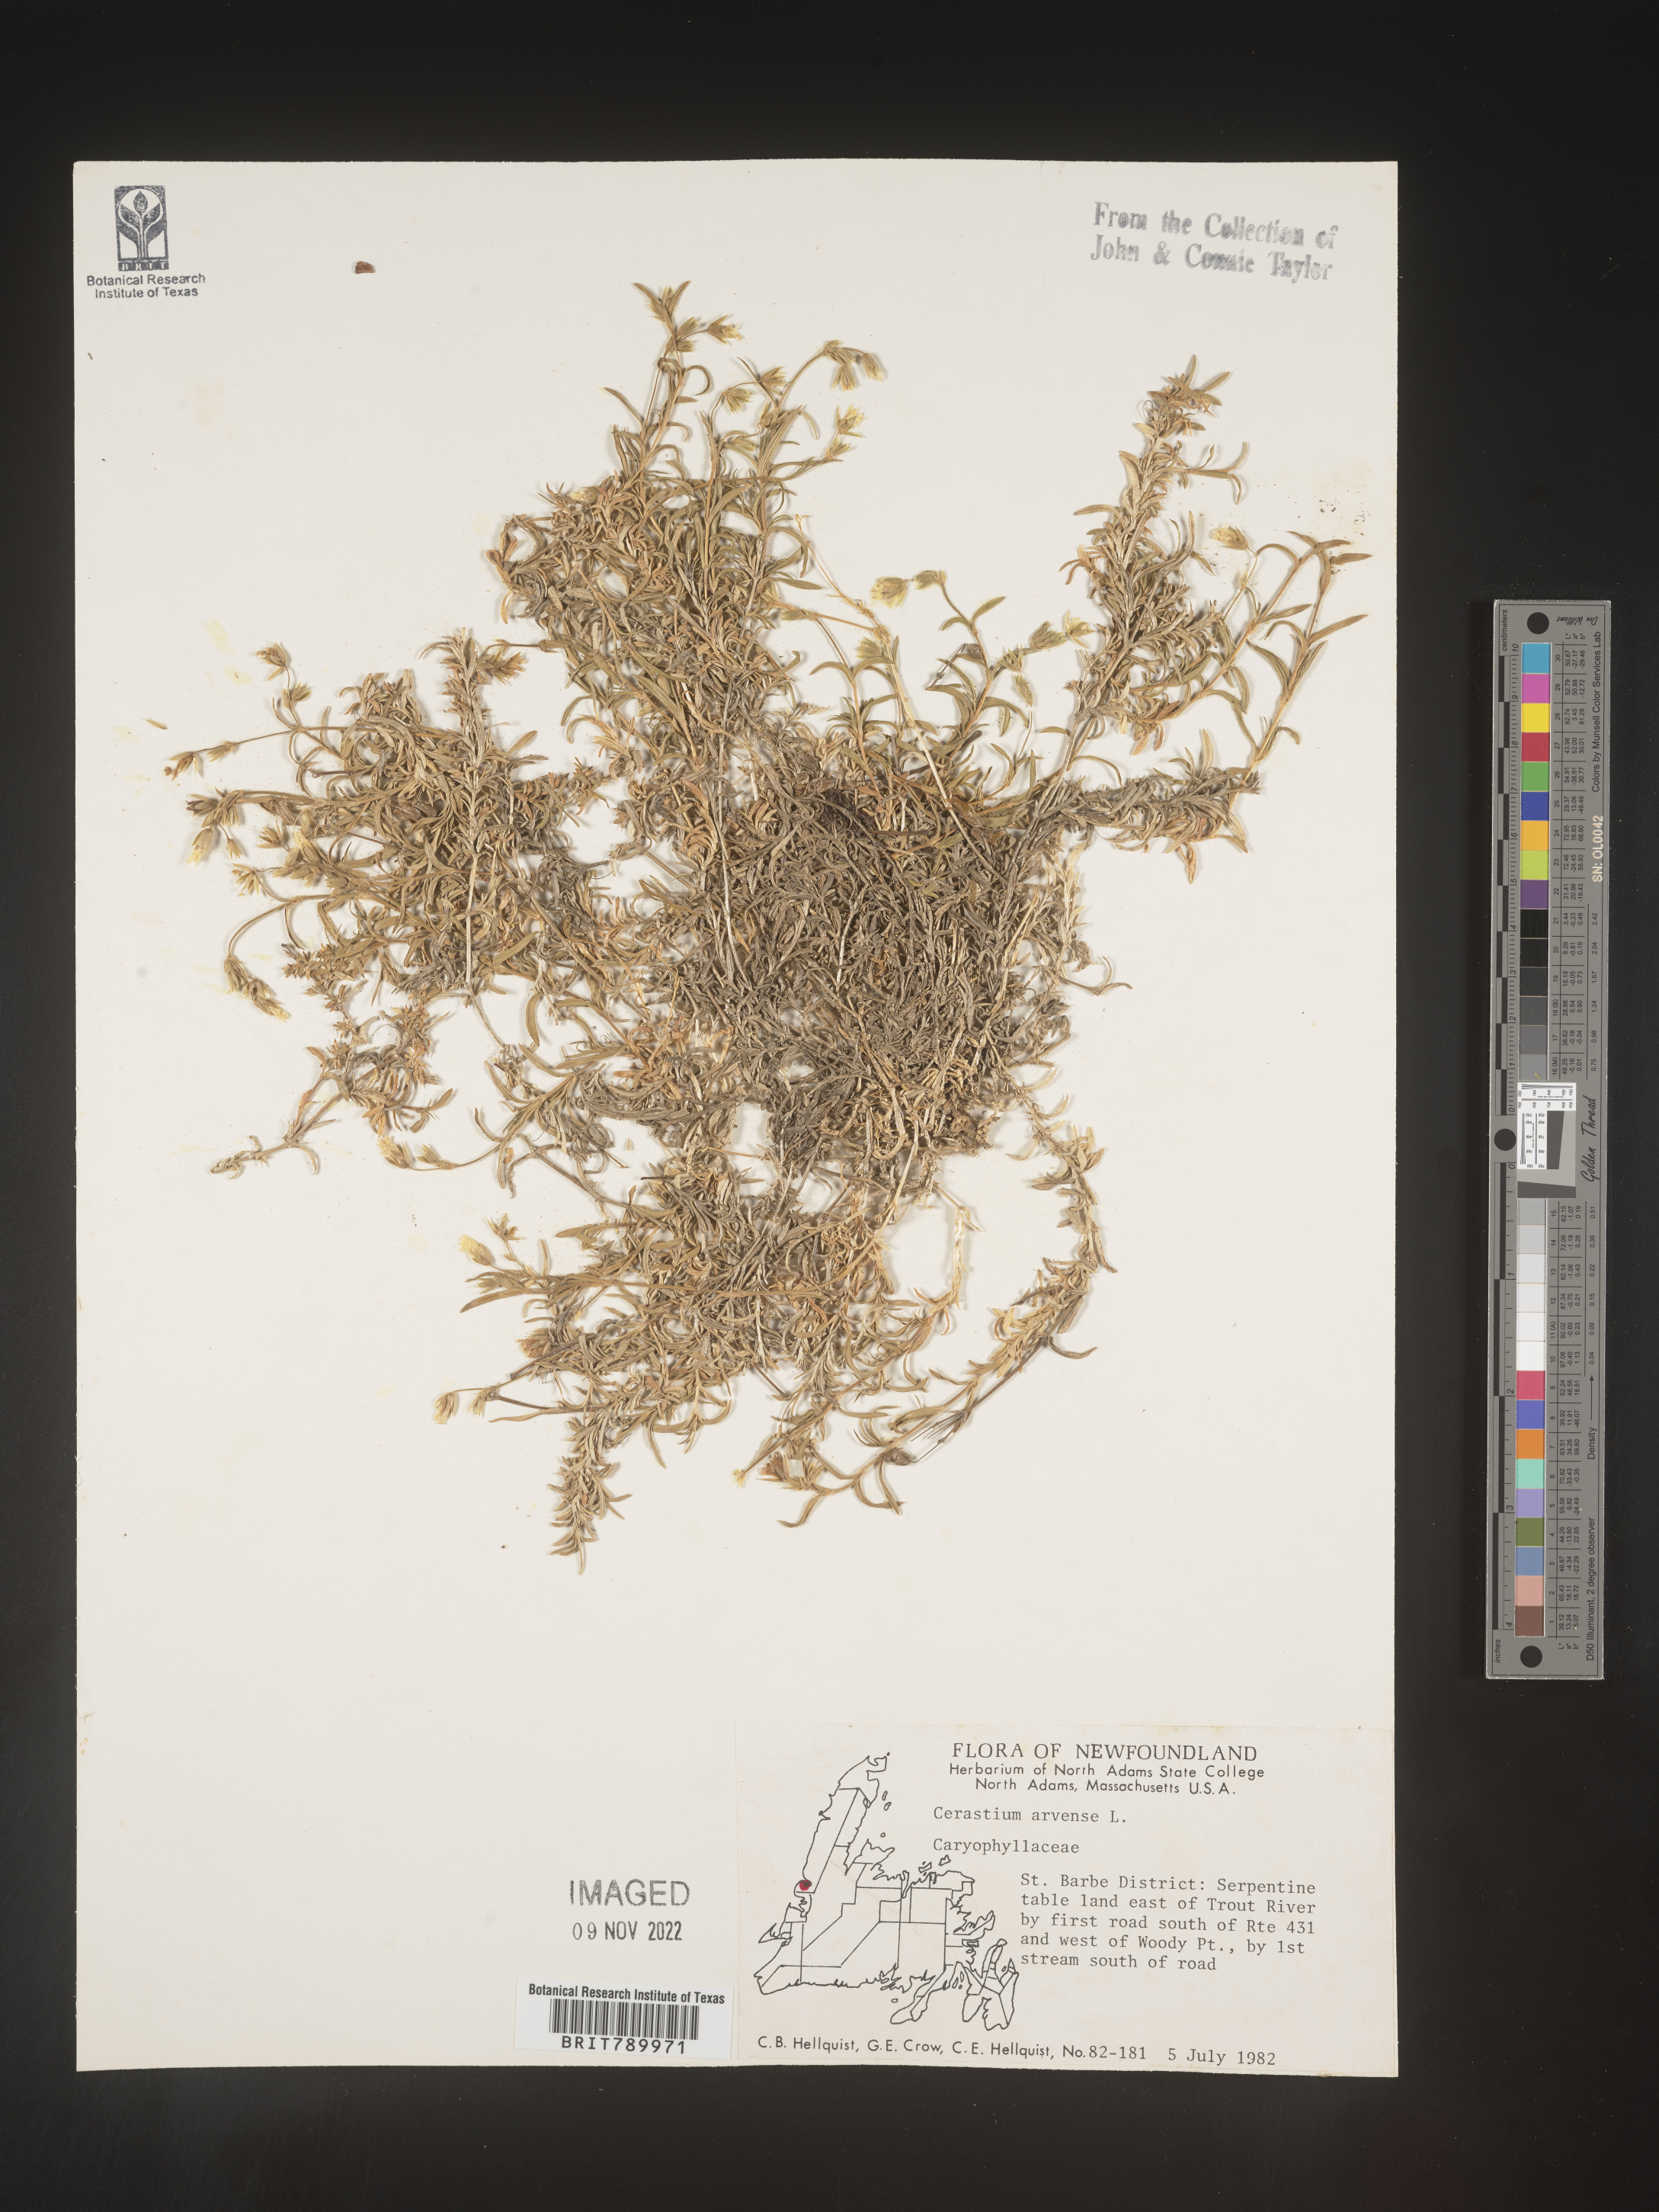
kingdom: Plantae
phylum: Tracheophyta
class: Magnoliopsida
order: Caryophyllales
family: Caryophyllaceae
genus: Cerastium
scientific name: Cerastium arvense
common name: Field mouse-ear
